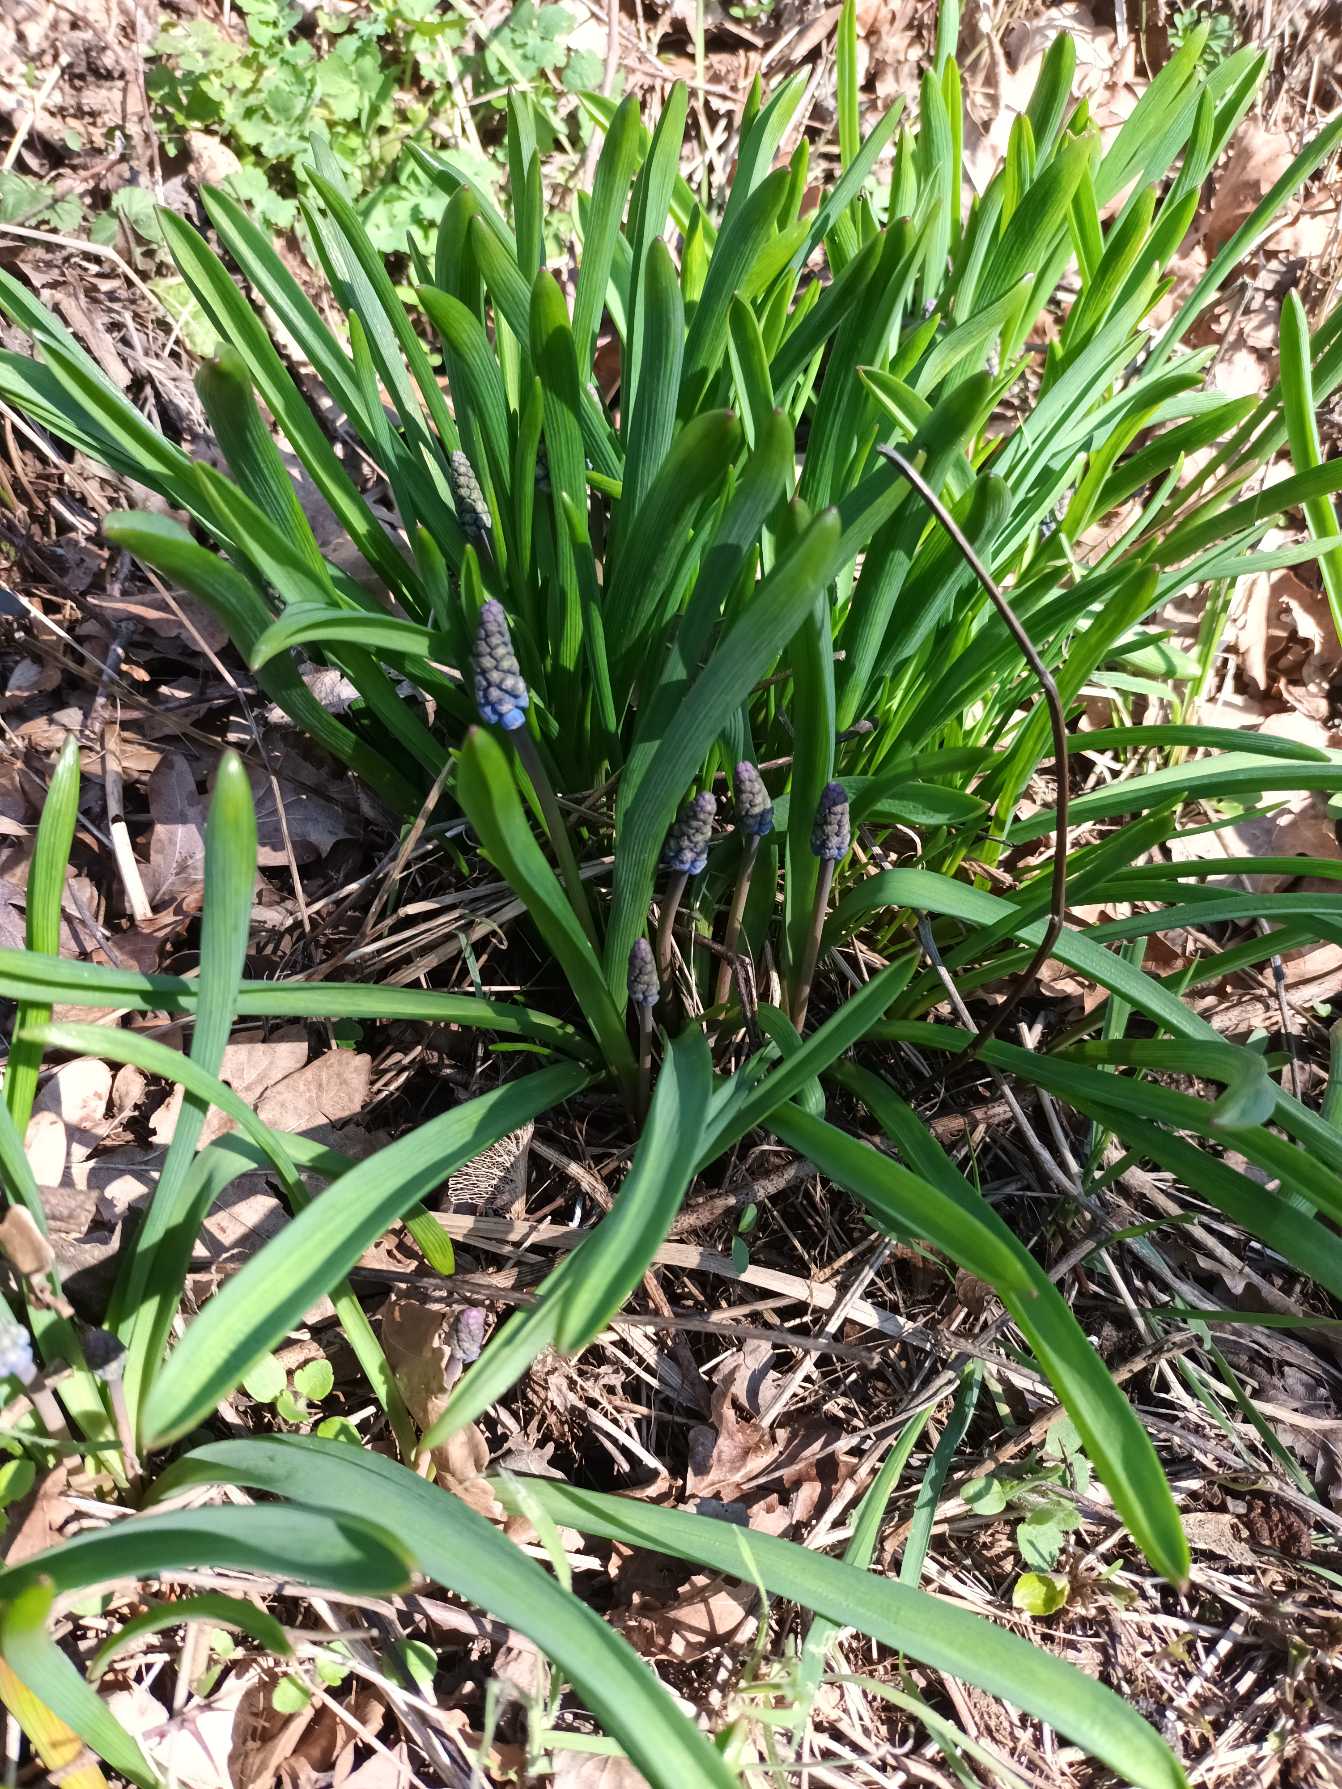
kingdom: Plantae
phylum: Tracheophyta
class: Liliopsida
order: Asparagales
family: Asparagaceae
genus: Muscari
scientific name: Muscari botryoides
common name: Perlehyacint
